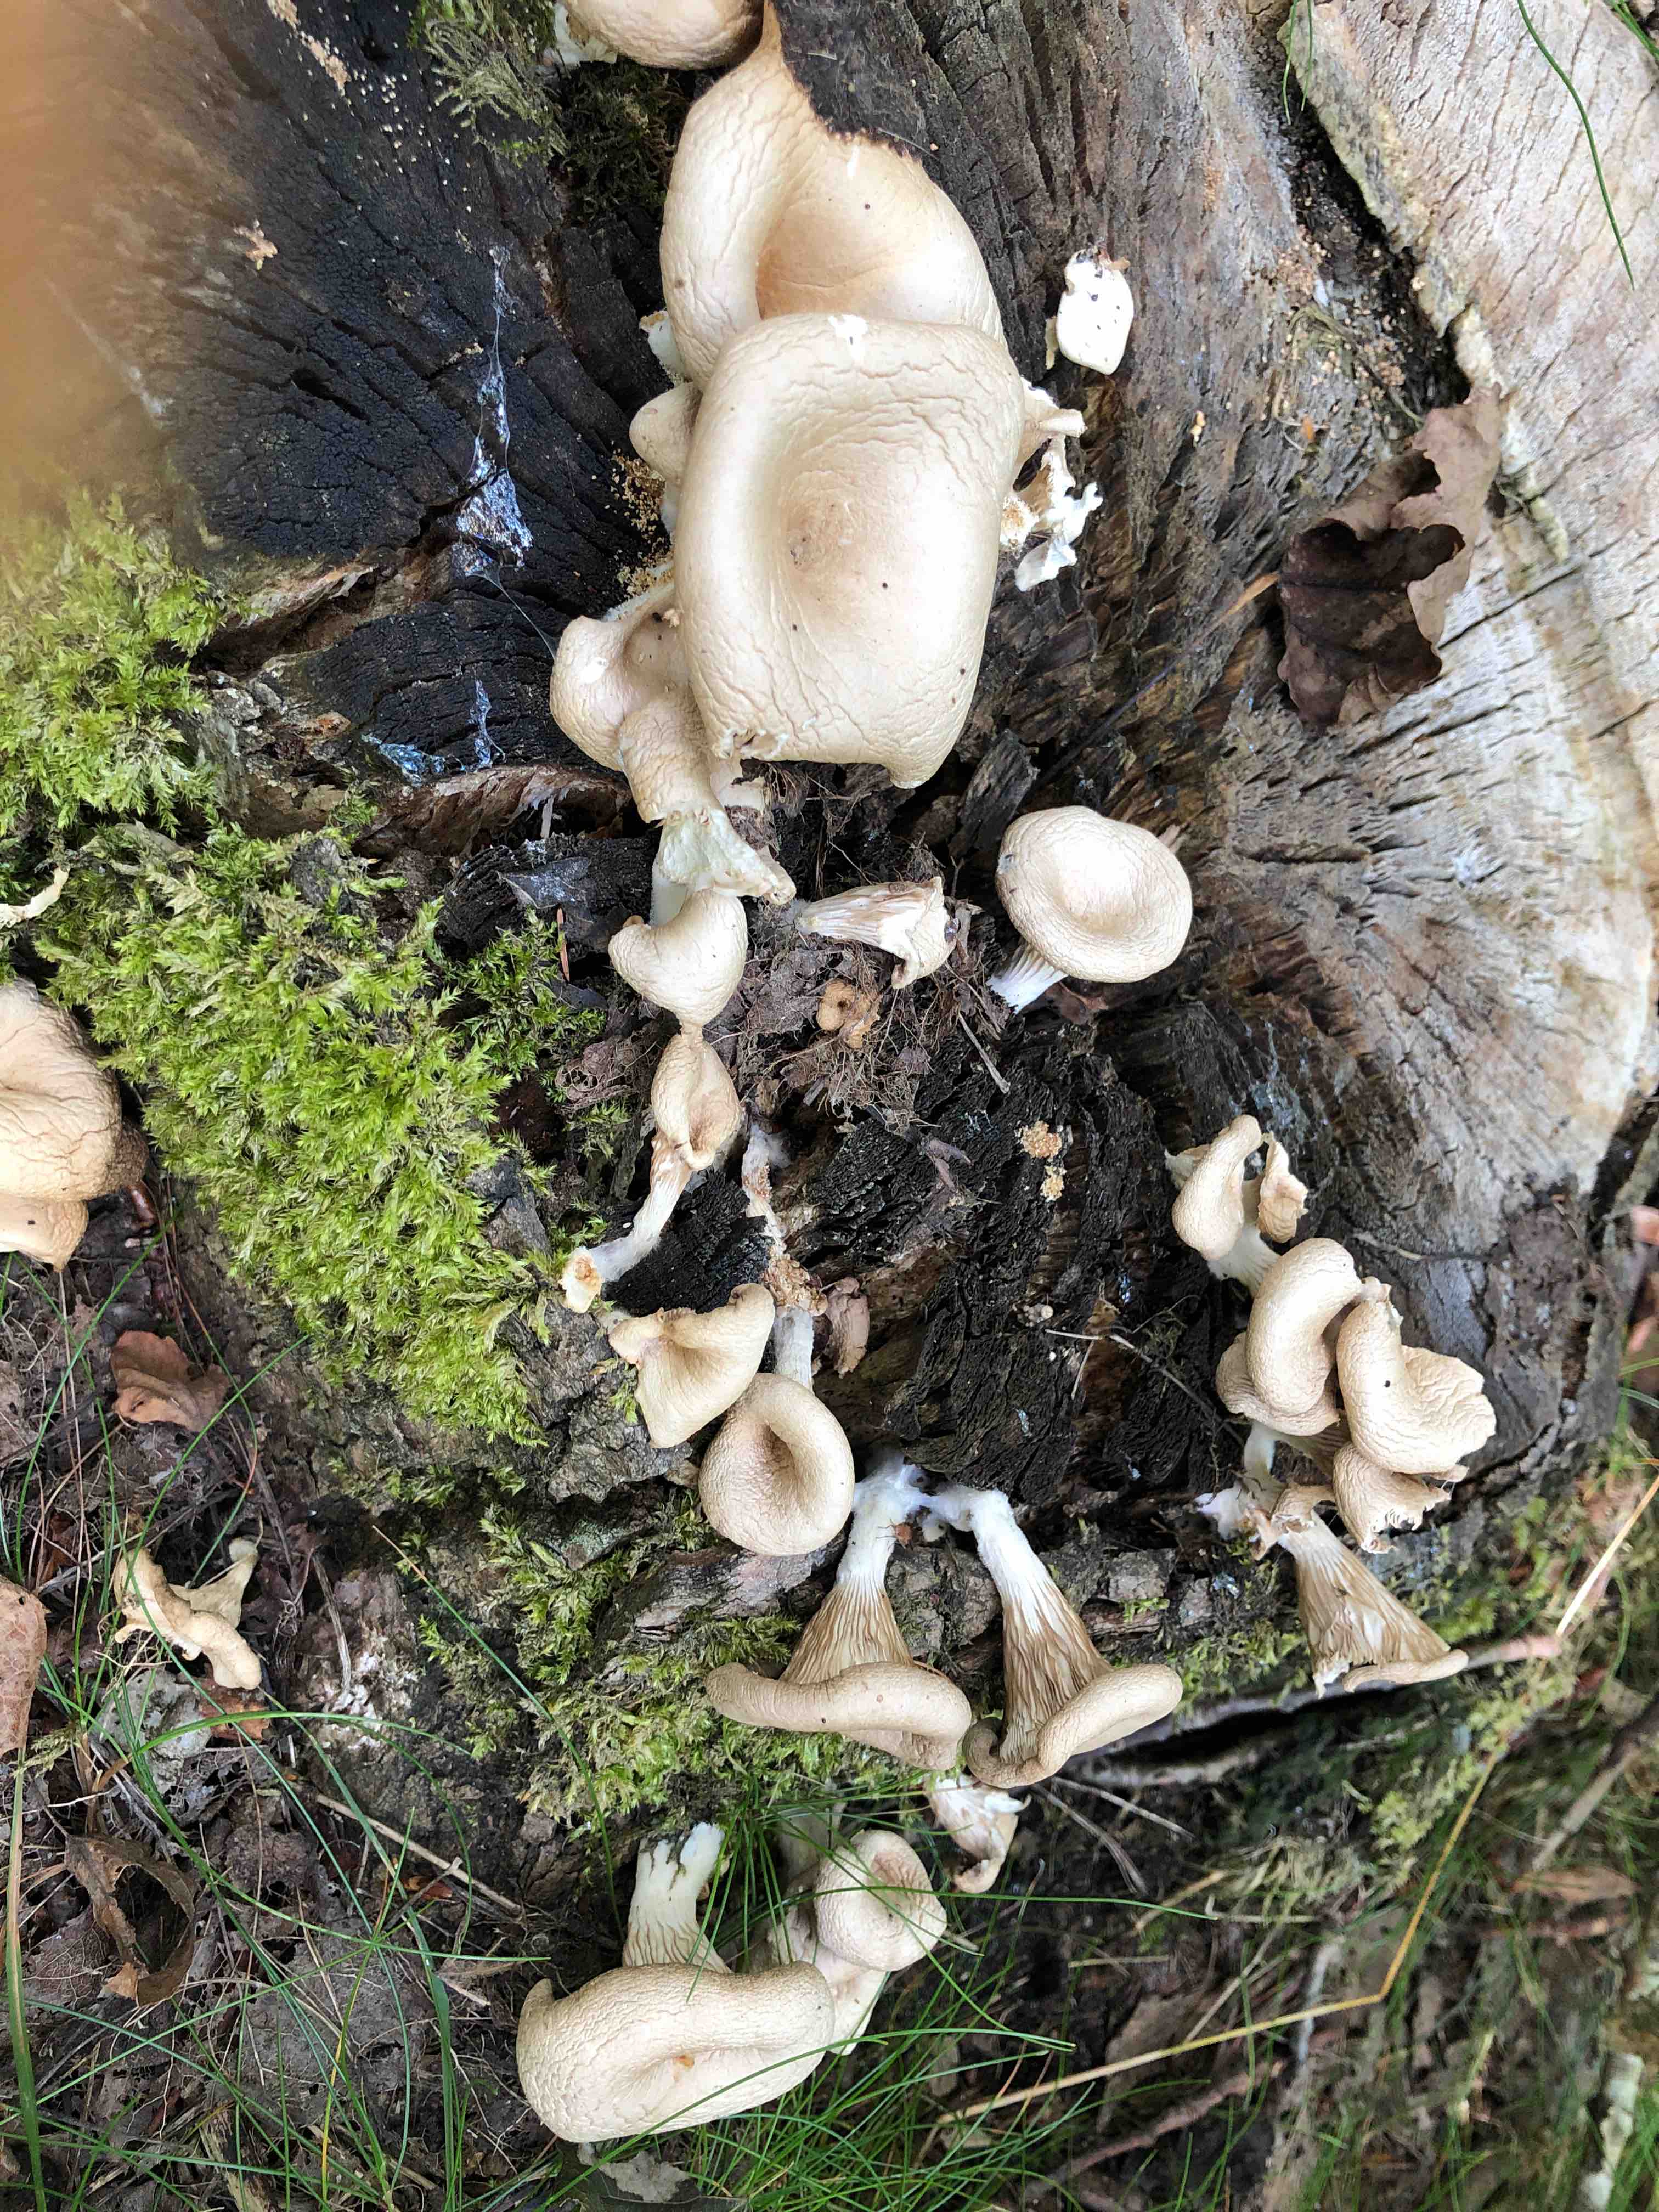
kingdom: Fungi
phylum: Basidiomycota
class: Agaricomycetes
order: Agaricales
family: Pleurotaceae
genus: Pleurotus
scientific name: Pleurotus pulmonarius
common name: sommer-østershat
